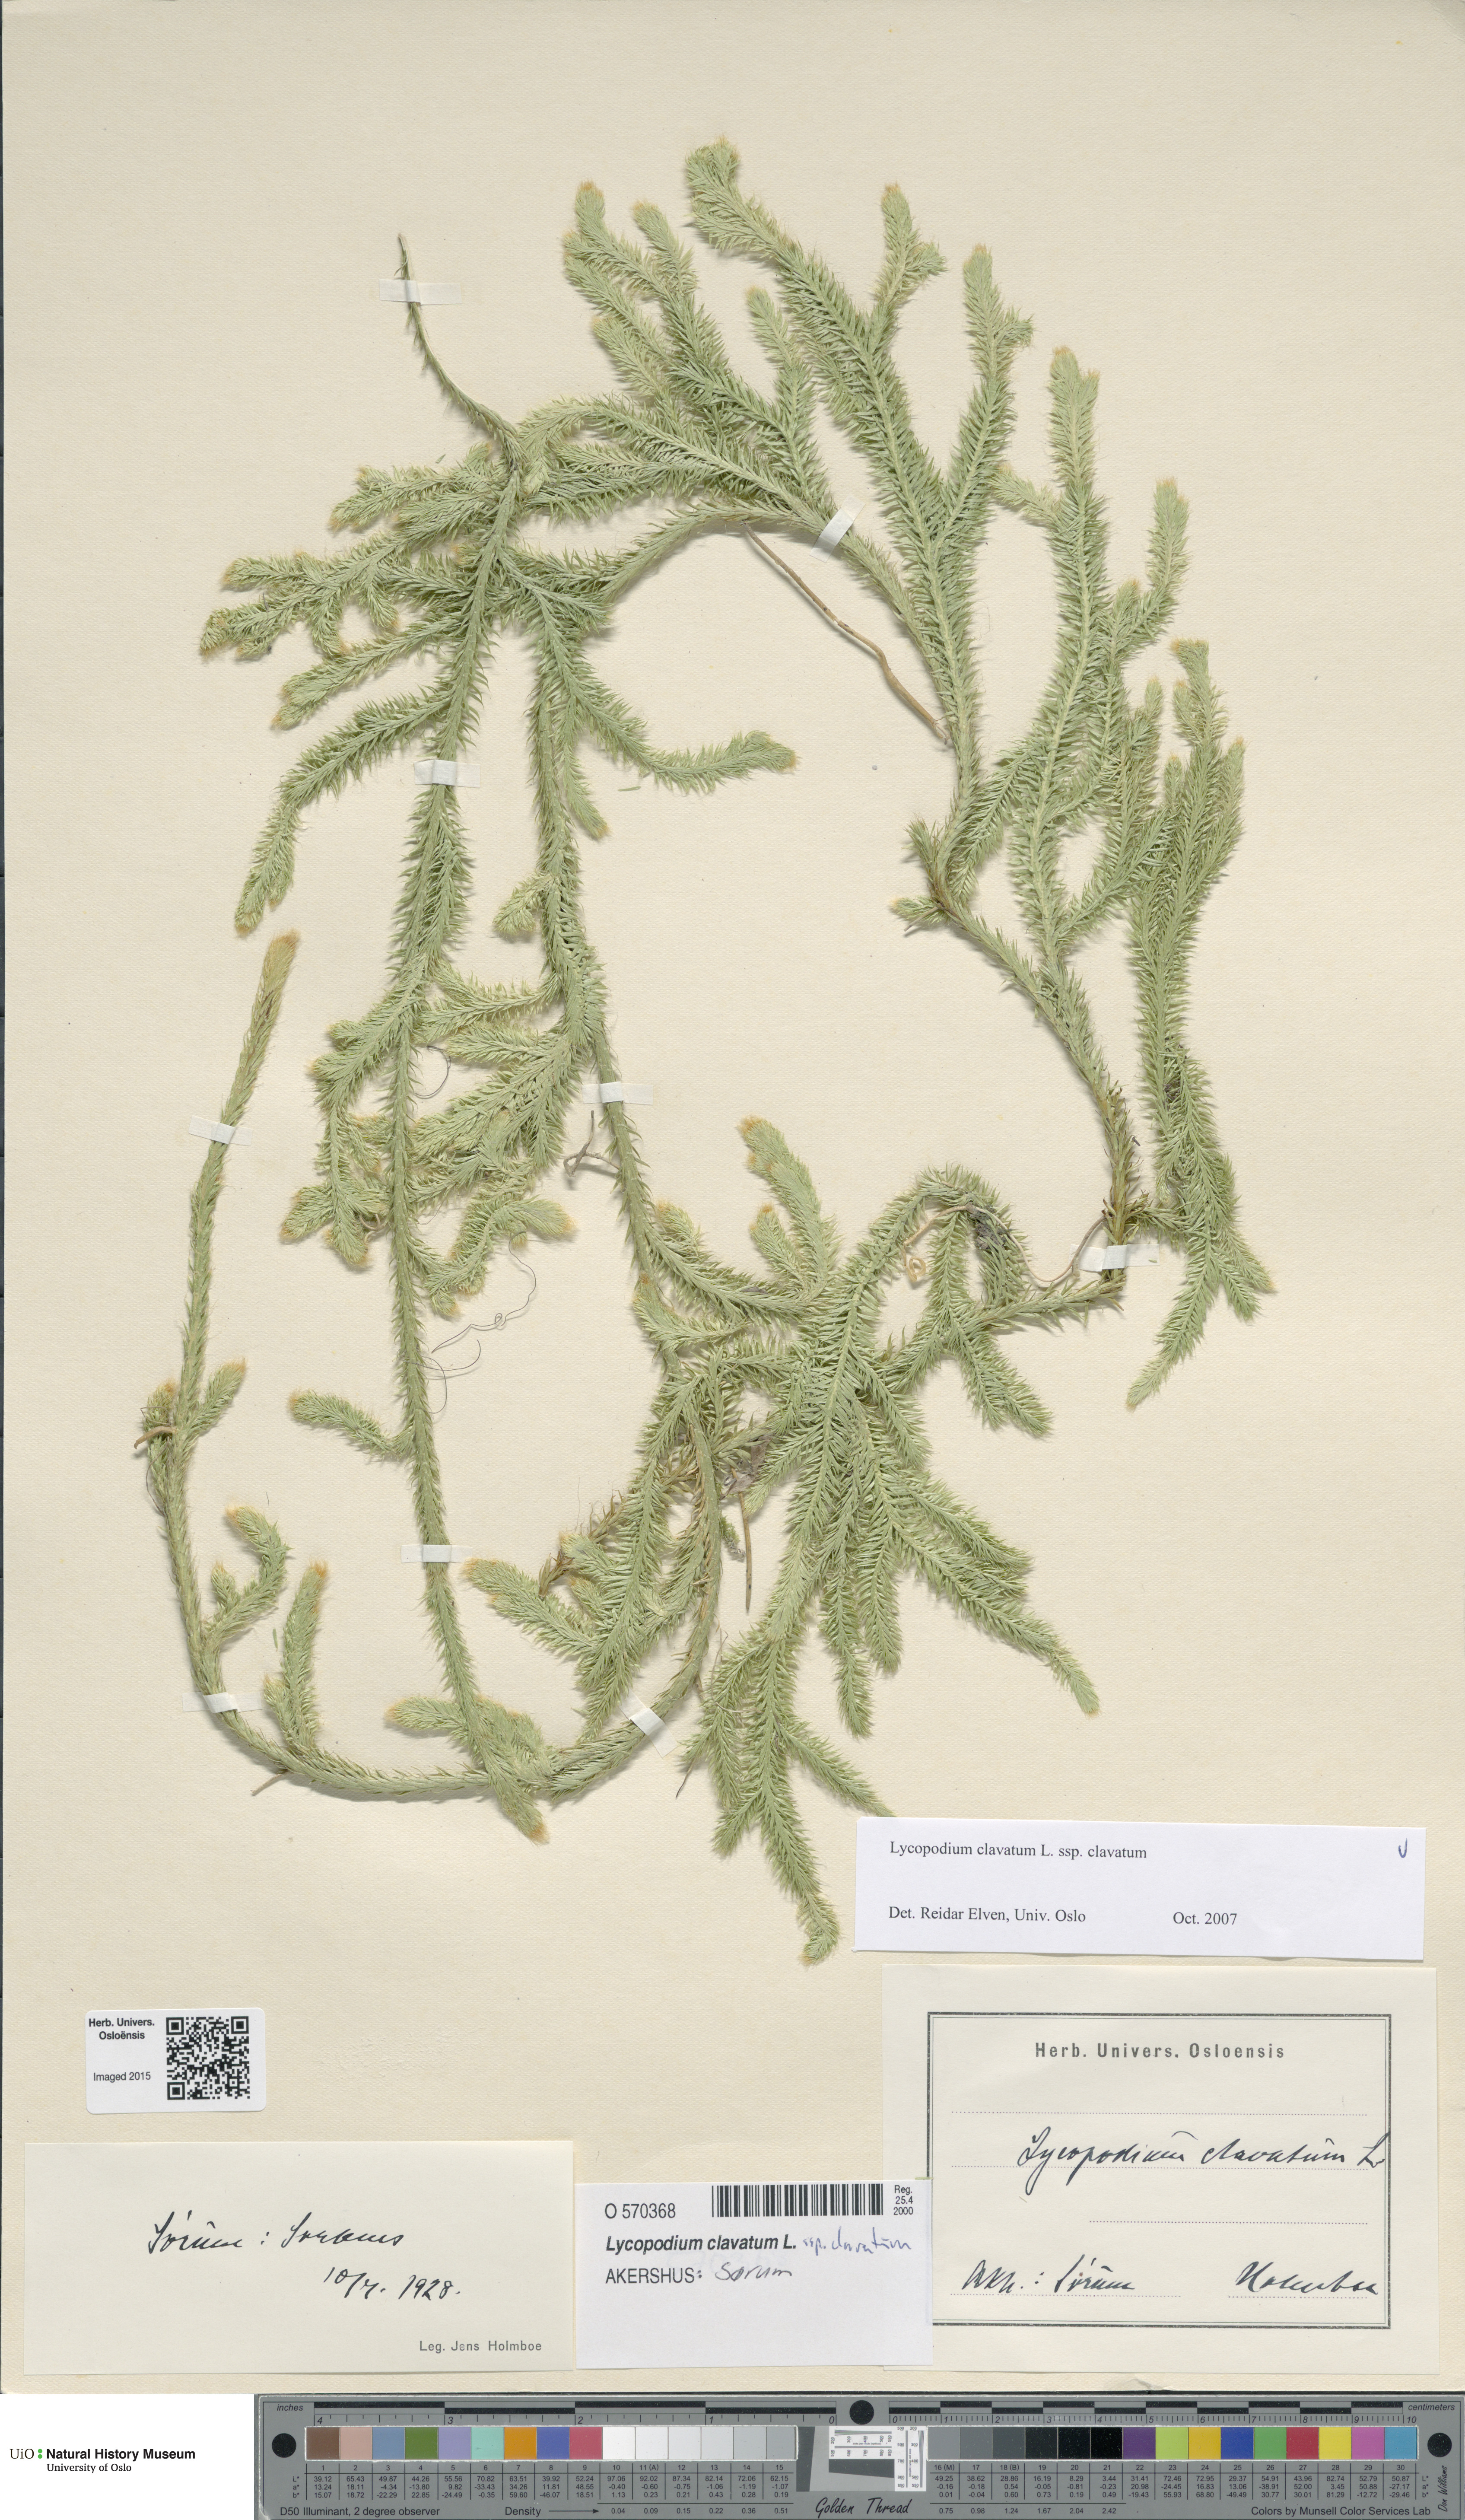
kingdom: Plantae
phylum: Tracheophyta
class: Lycopodiopsida
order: Lycopodiales
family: Lycopodiaceae
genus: Lycopodium
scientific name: Lycopodium clavatum
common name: Stag's-horn clubmoss
